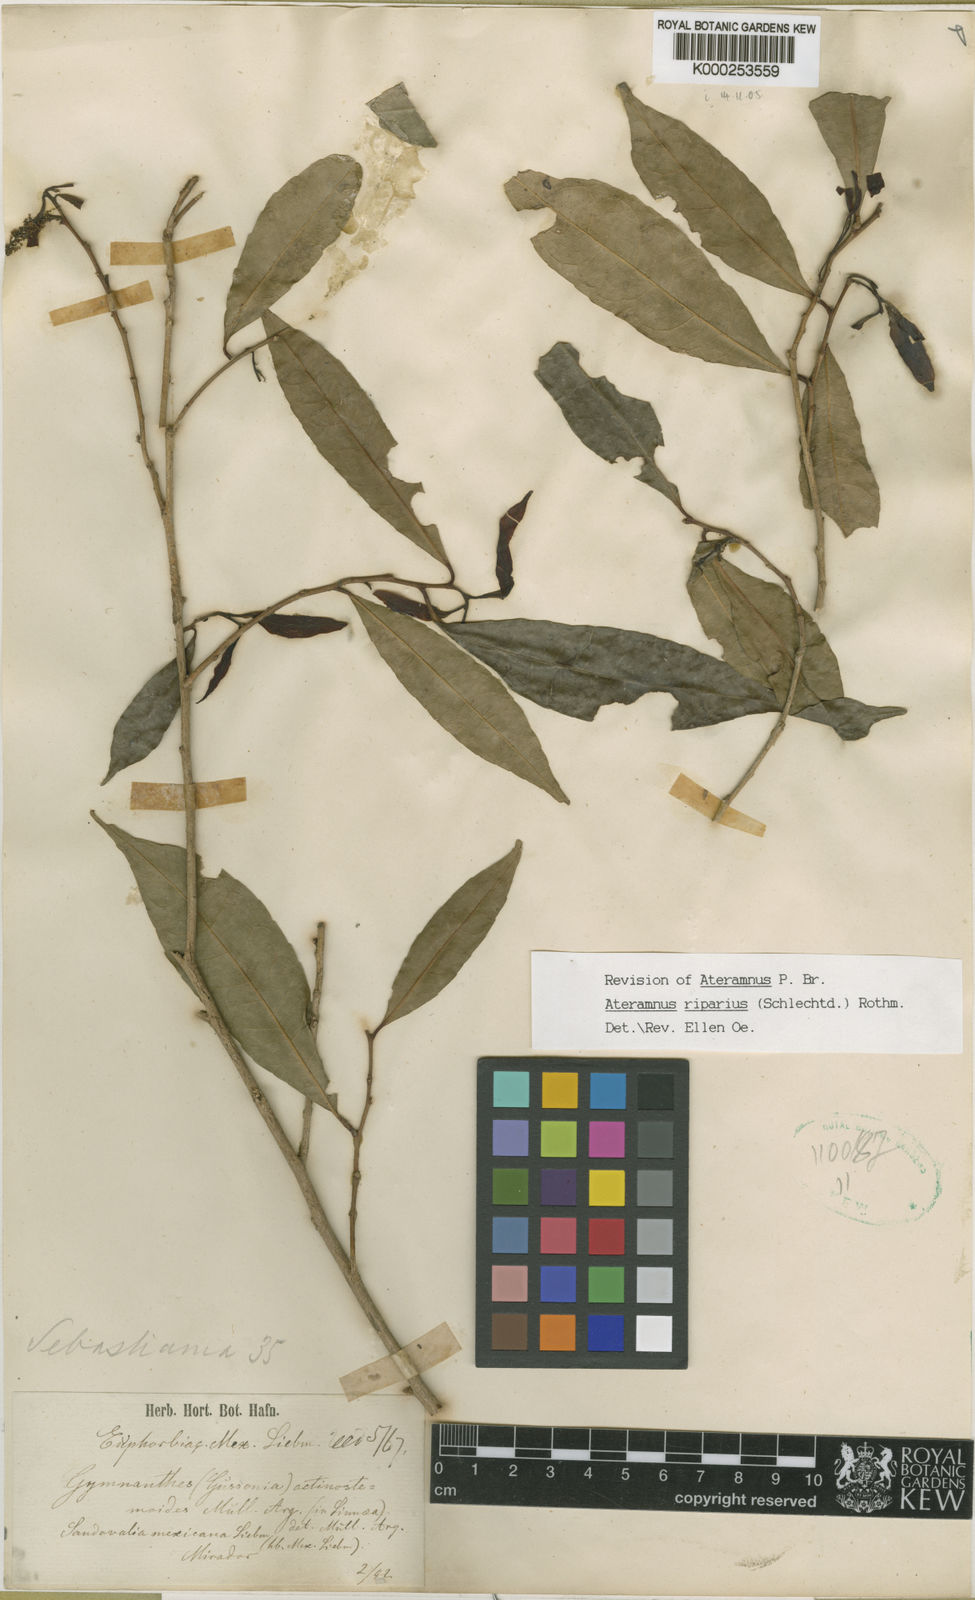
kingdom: Plantae
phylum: Tracheophyta
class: Magnoliopsida
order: Malpighiales
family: Euphorbiaceae
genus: Gymnanthes
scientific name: Gymnanthes
